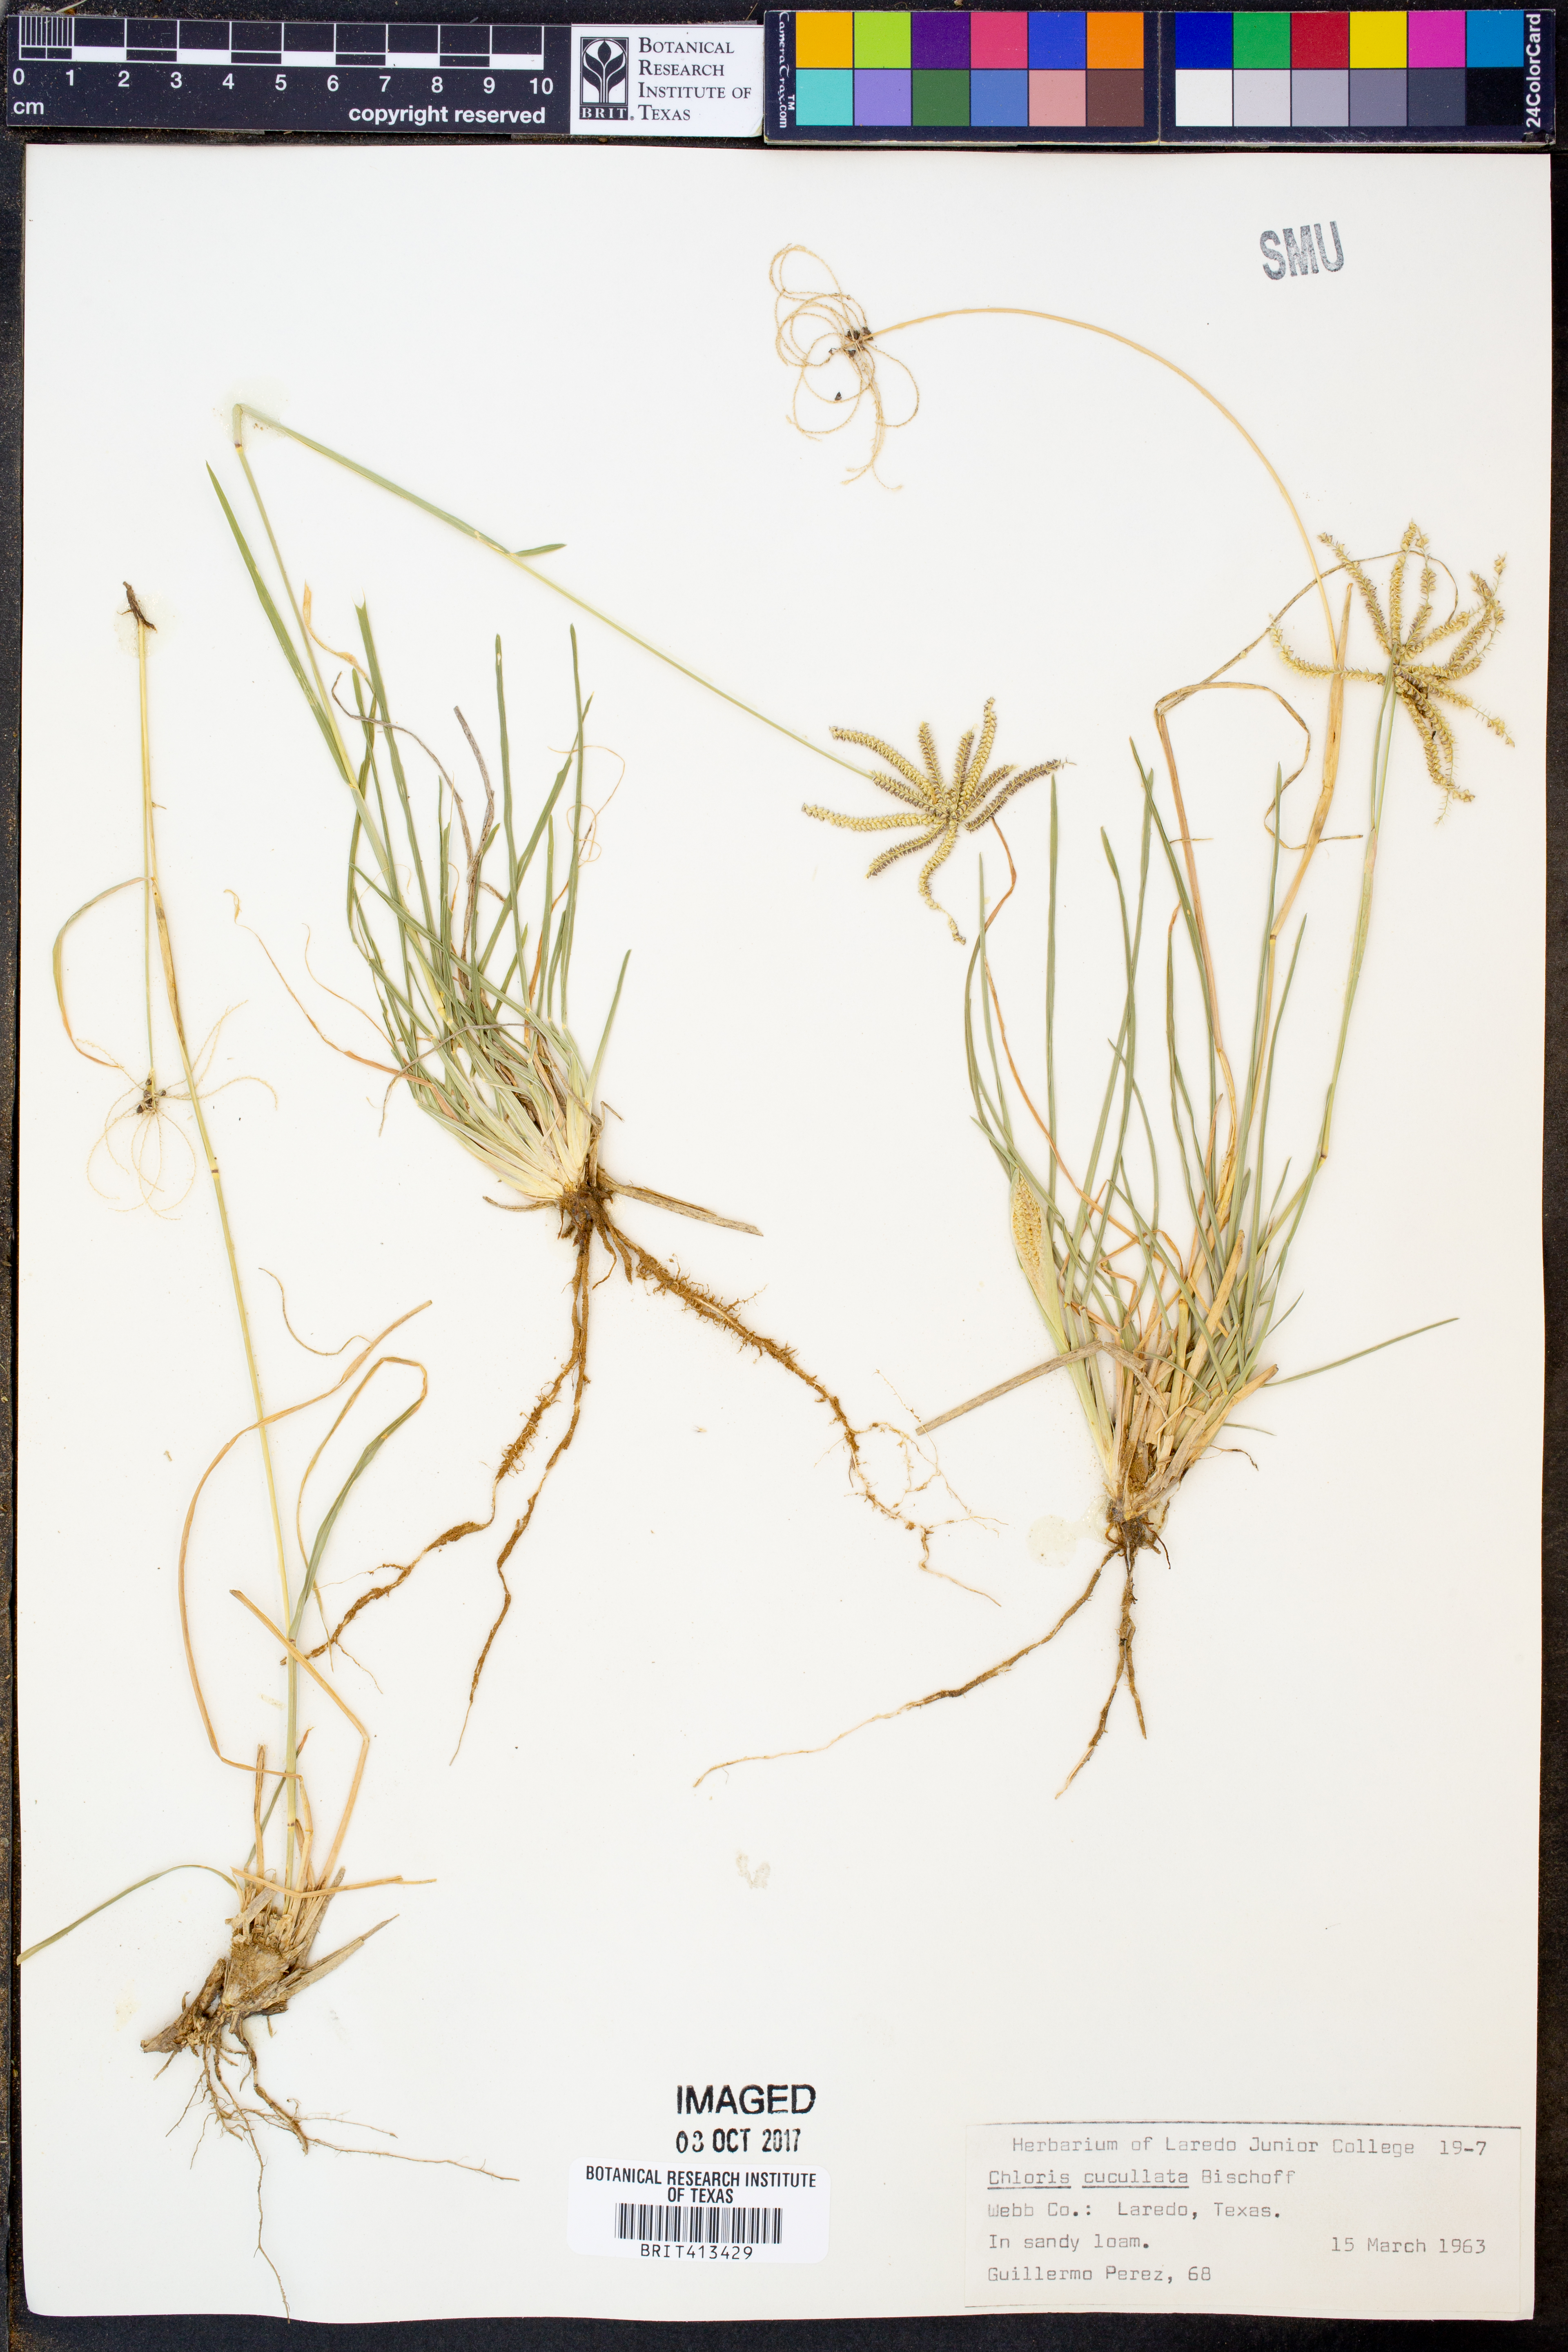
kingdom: Plantae
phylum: Tracheophyta
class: Liliopsida
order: Poales
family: Poaceae
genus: Chloris
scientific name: Chloris cucullata
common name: Hooded windmill grass
